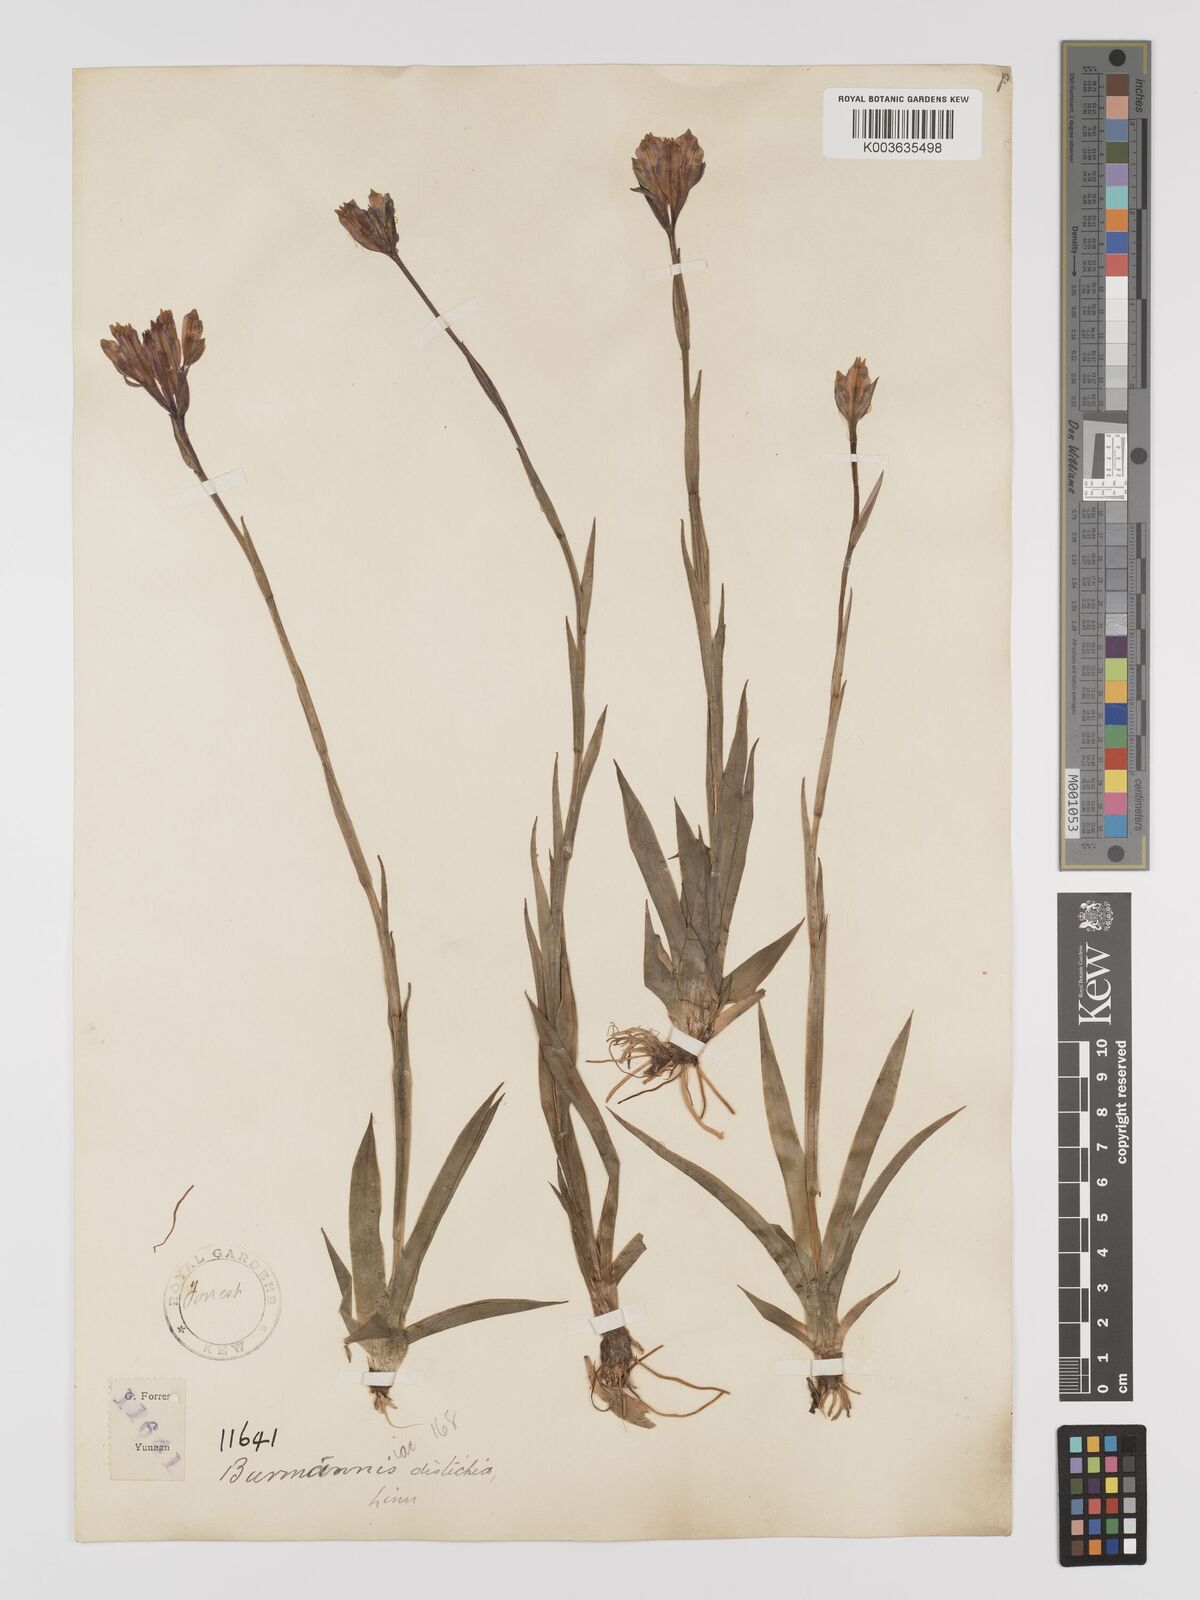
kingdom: Plantae
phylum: Tracheophyta
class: Liliopsida
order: Dioscoreales
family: Burmanniaceae
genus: Burmannia
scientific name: Burmannia disticha
